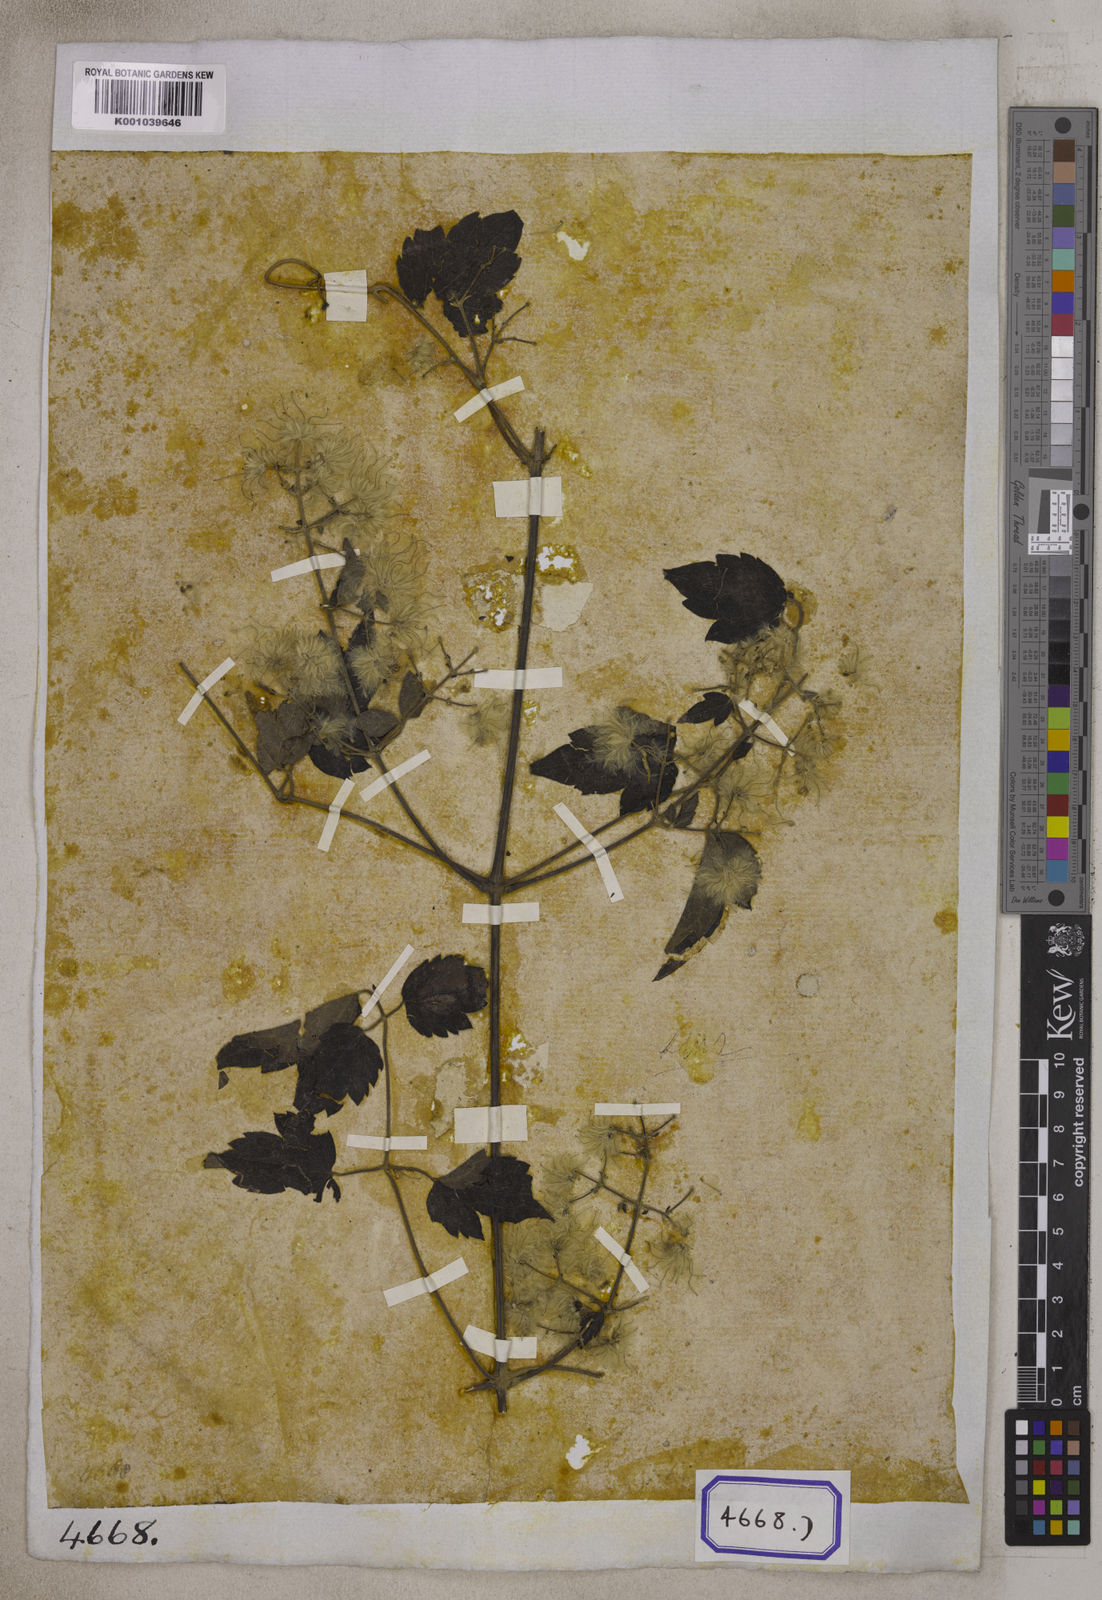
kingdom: Plantae
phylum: Tracheophyta
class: Magnoliopsida
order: Ranunculales
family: Ranunculaceae
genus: Clematis
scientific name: Clematis grata
